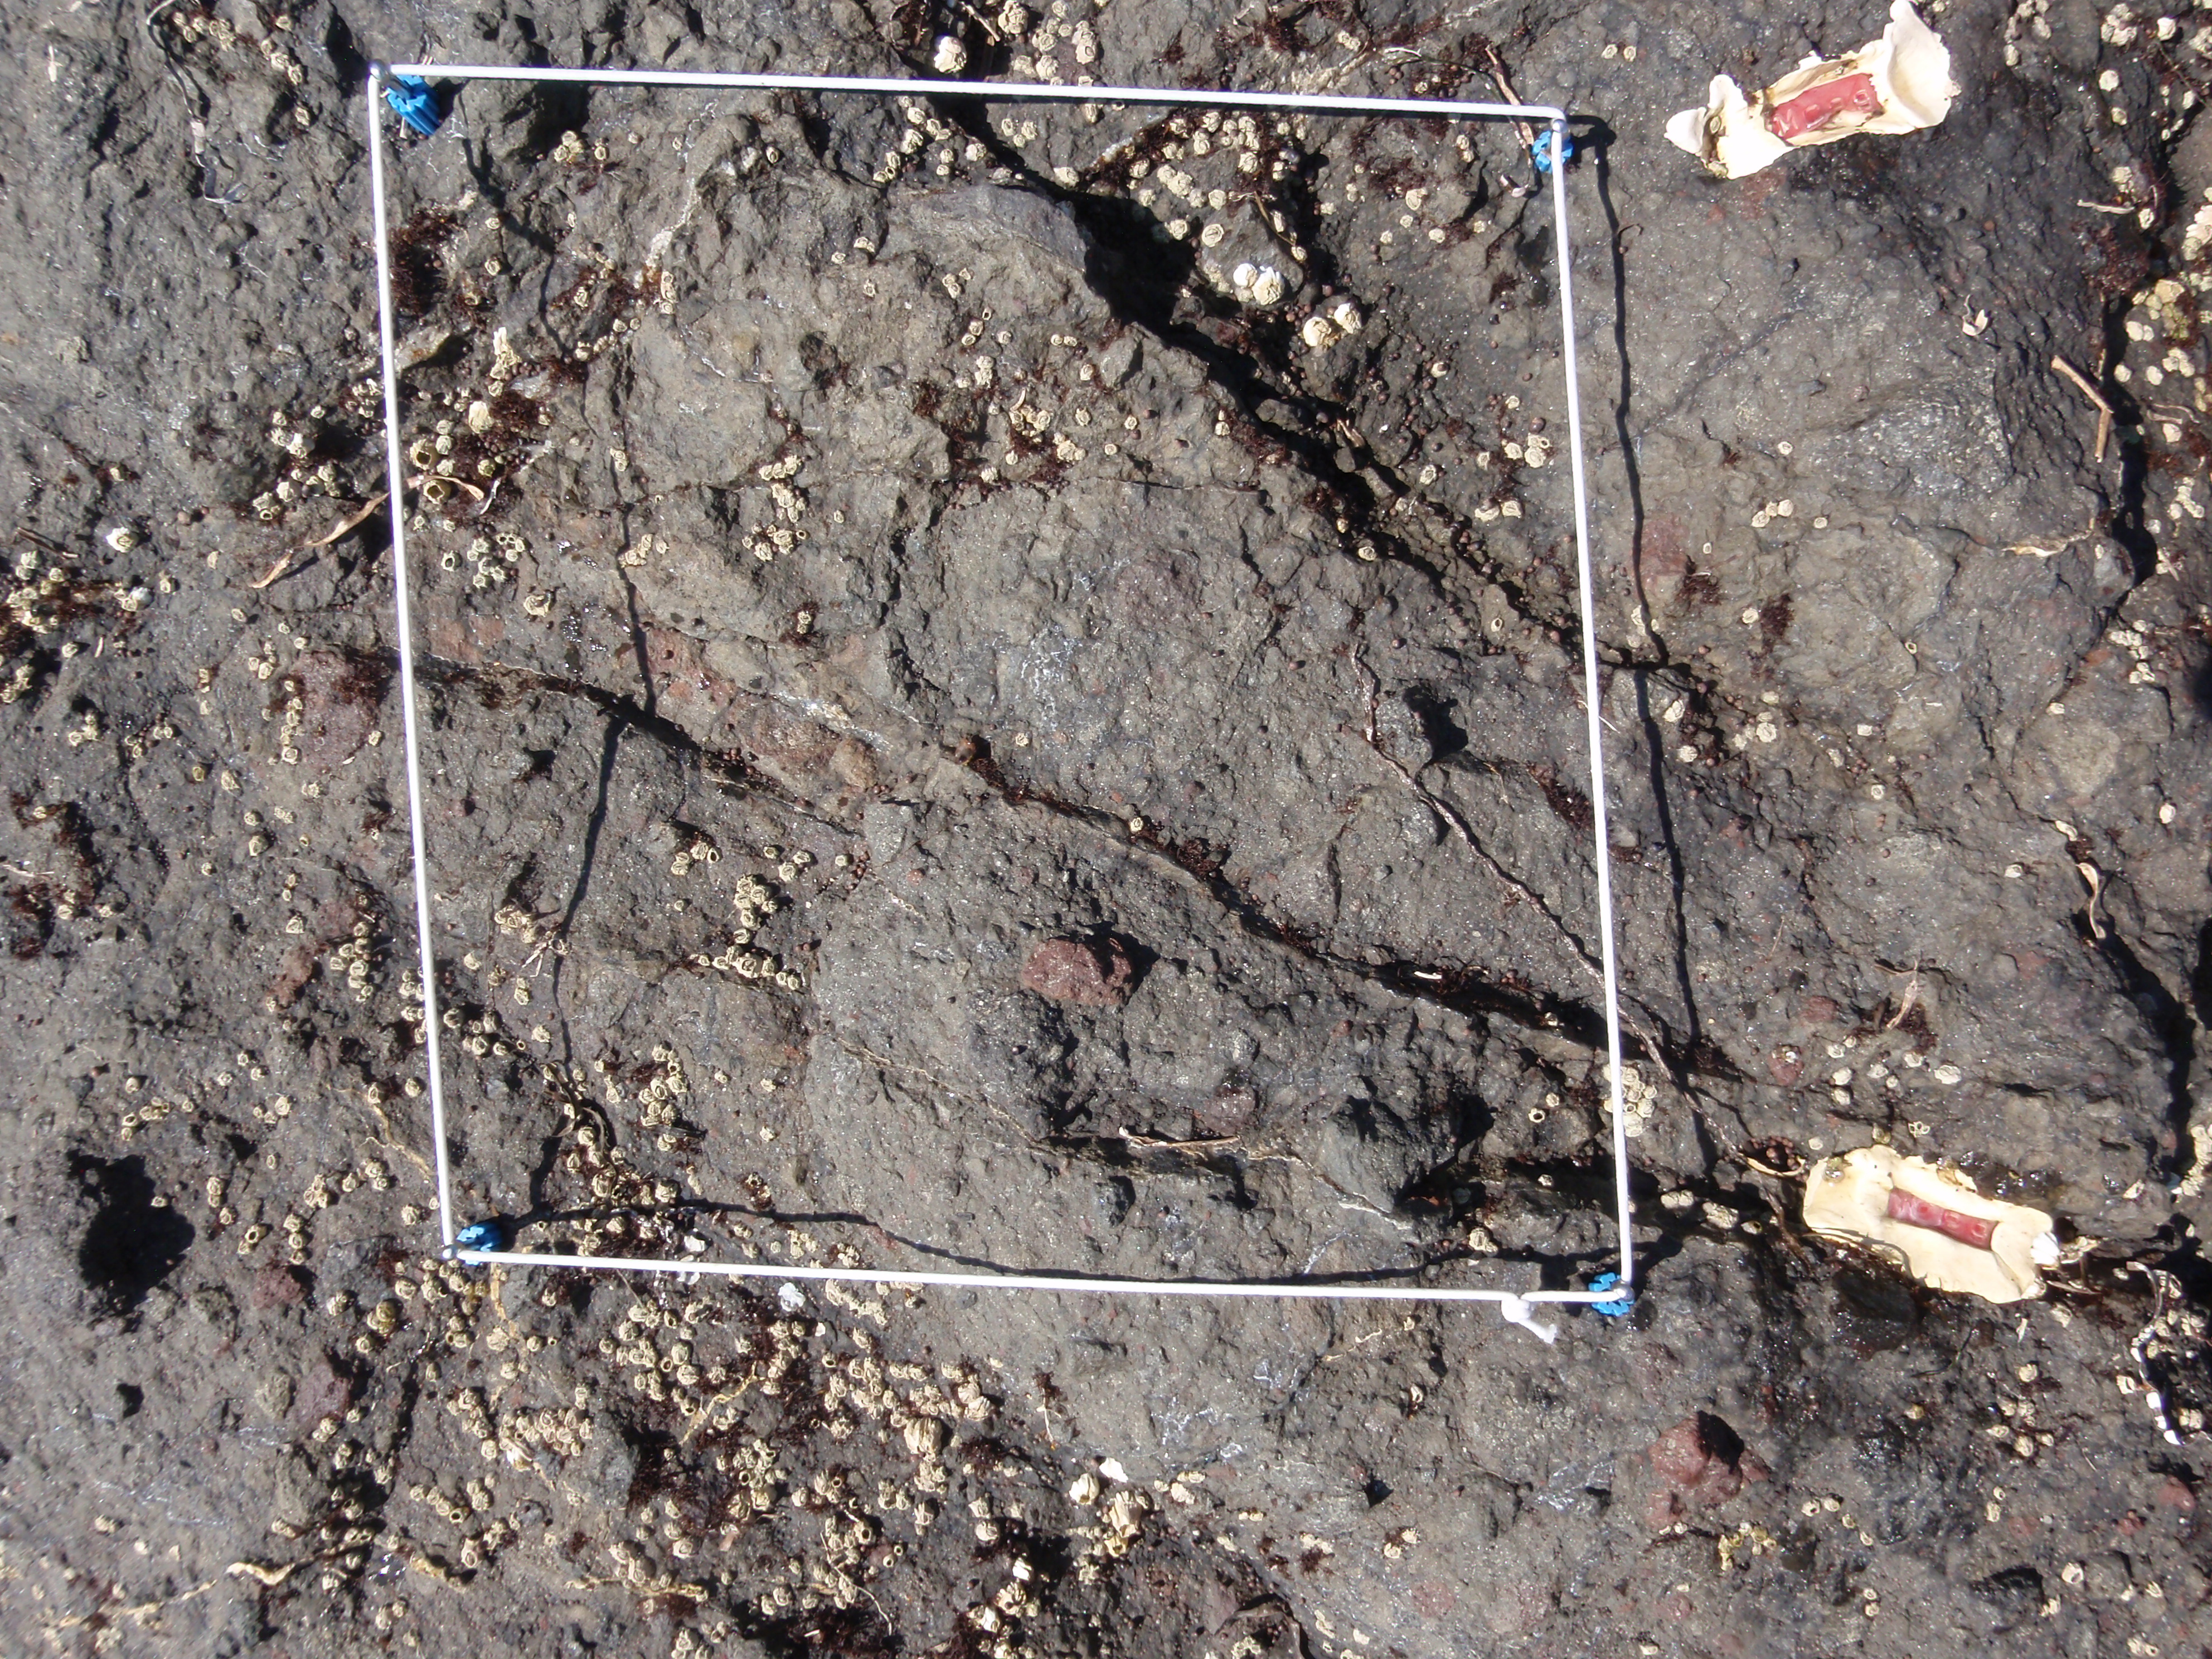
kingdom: Plantae
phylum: Rhodophyta
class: Florideophyceae
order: Gigartinales
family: Endocladiaceae
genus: Gloiopeltis
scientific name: Gloiopeltis furcata
